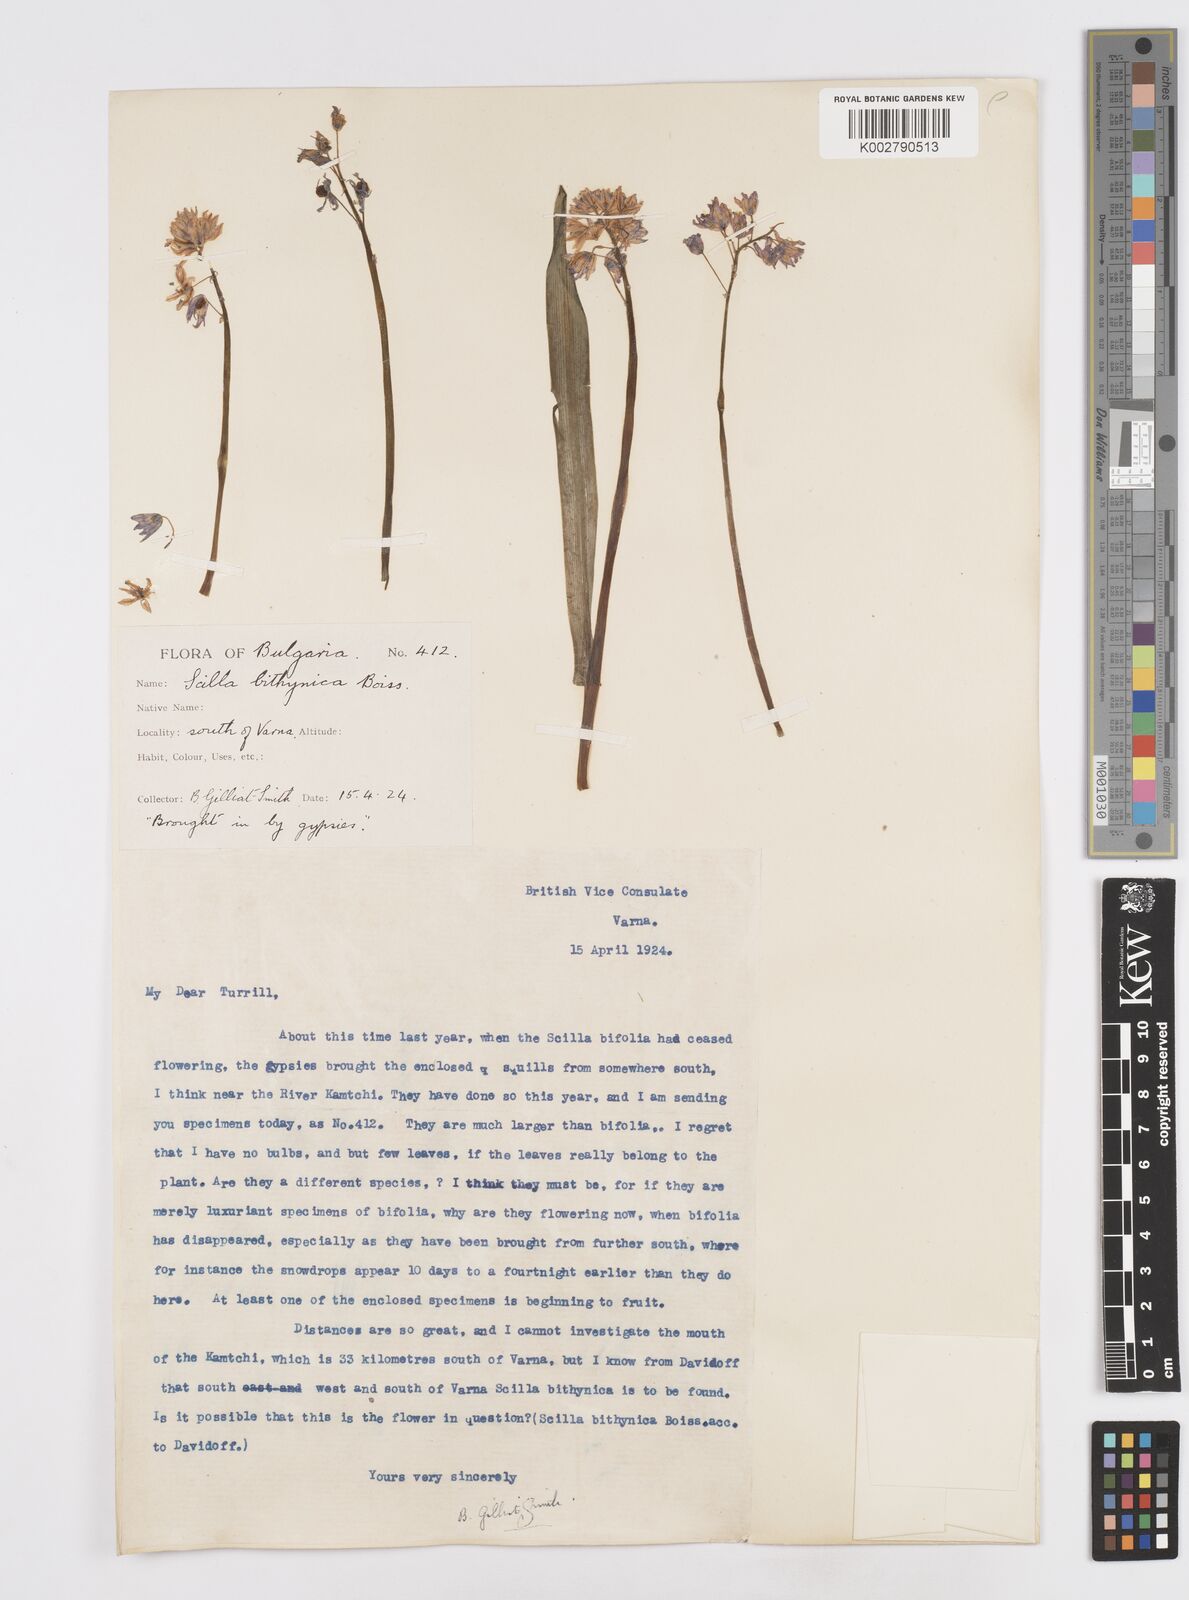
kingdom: Plantae
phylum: Tracheophyta
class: Liliopsida
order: Asparagales
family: Asparagaceae
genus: Scilla
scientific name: Scilla bithynica
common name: Turkish squill
